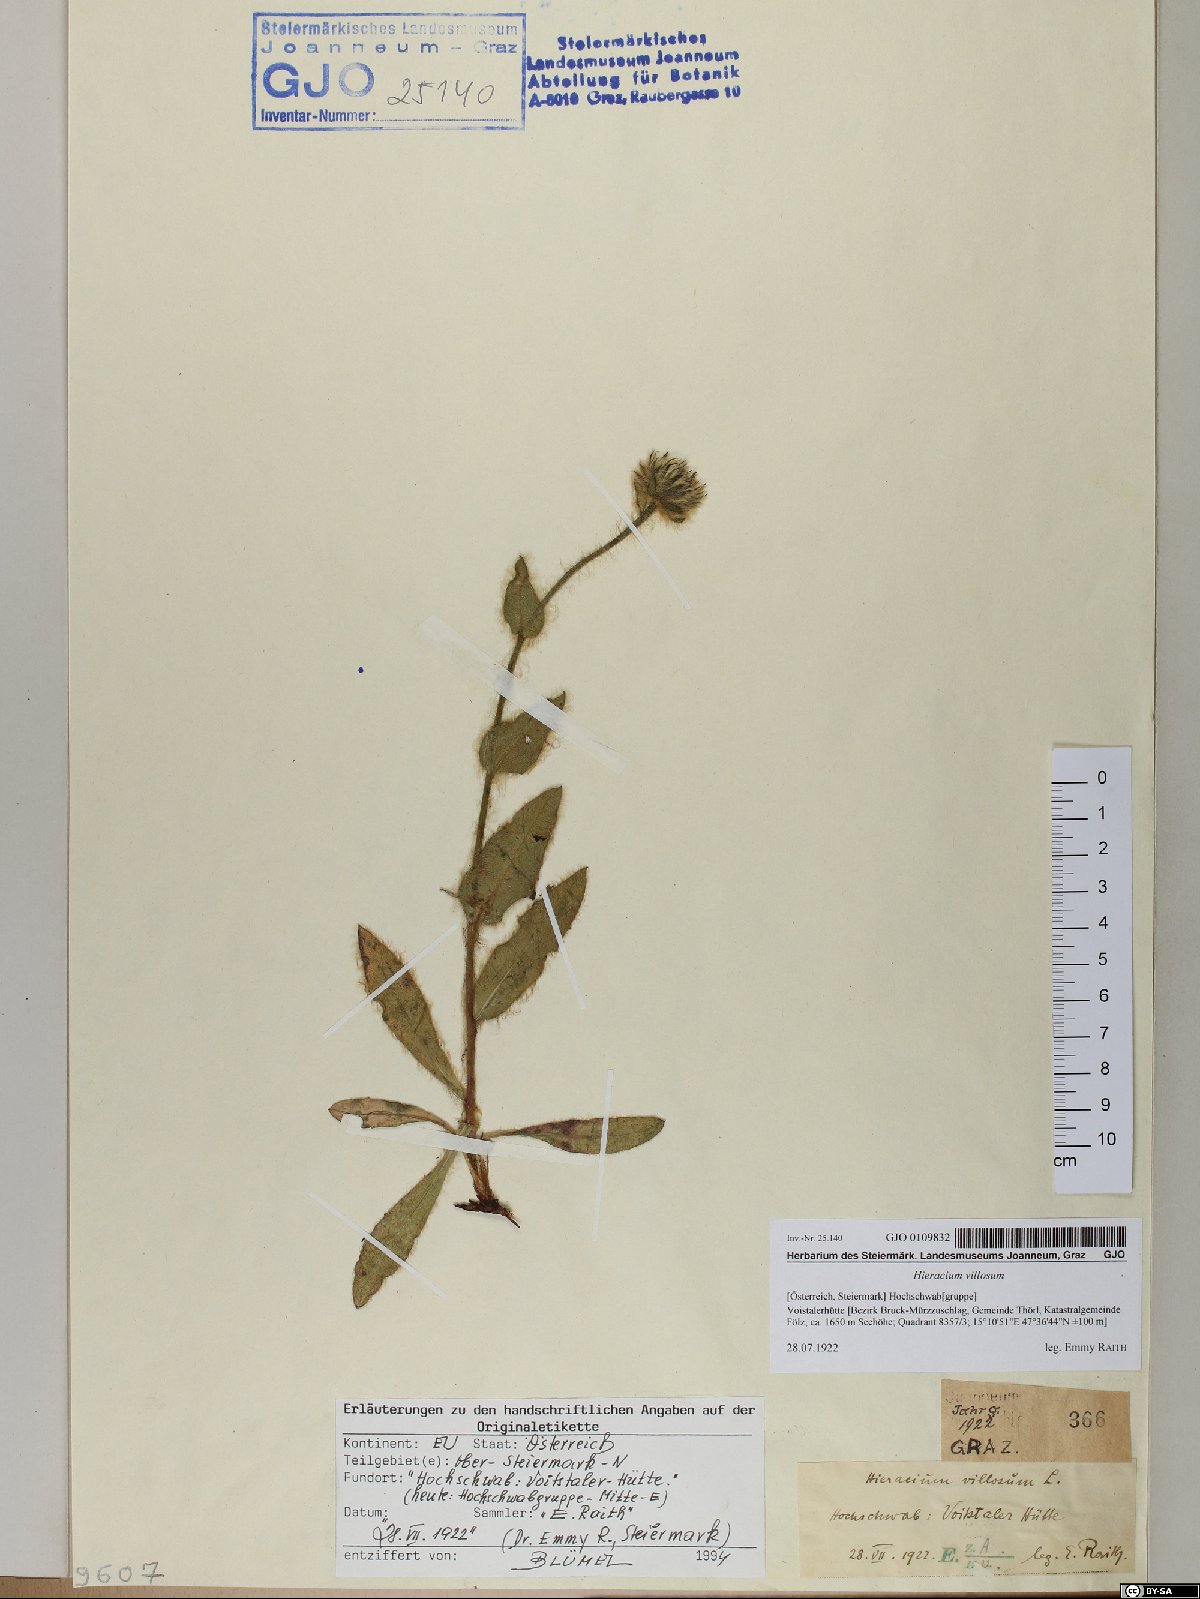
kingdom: Plantae
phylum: Tracheophyta
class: Magnoliopsida
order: Asterales
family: Asteraceae
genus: Hieracium
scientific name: Hieracium villosum
